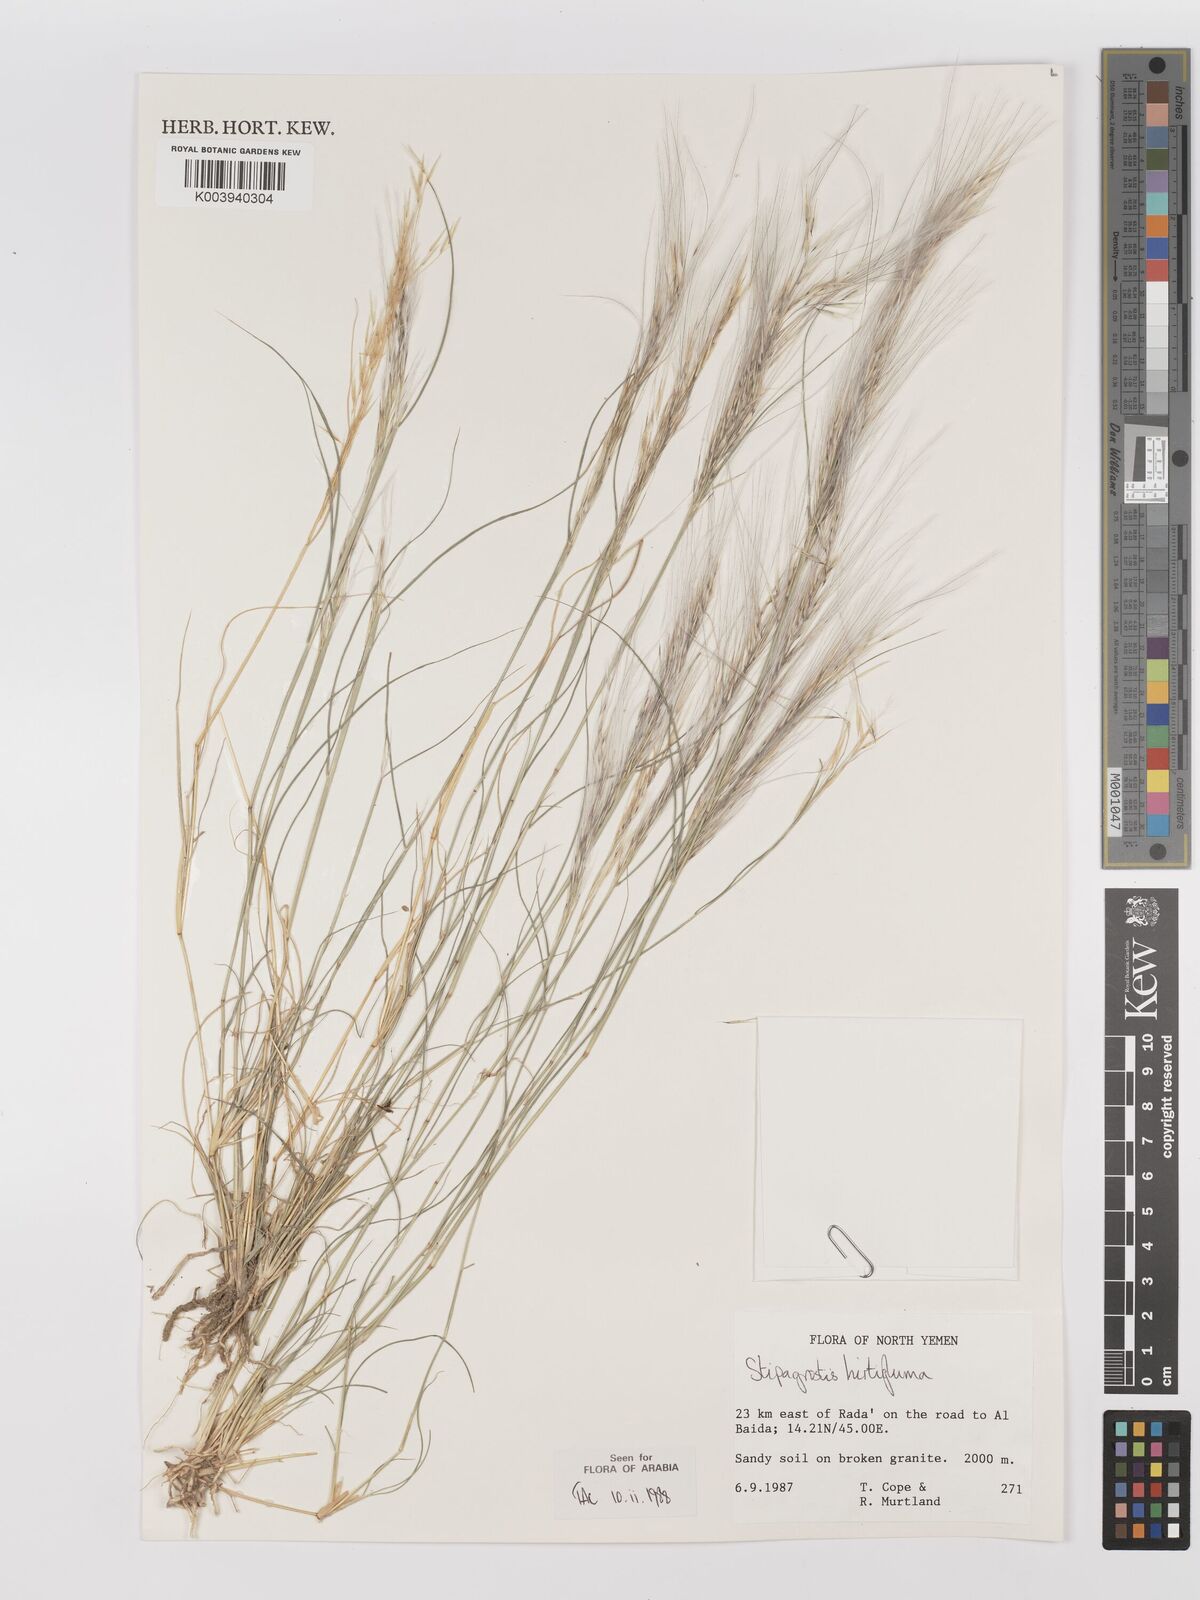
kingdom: Plantae
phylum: Tracheophyta
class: Liliopsida
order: Poales
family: Poaceae
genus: Stipagrostis
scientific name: Stipagrostis hirtigluma
